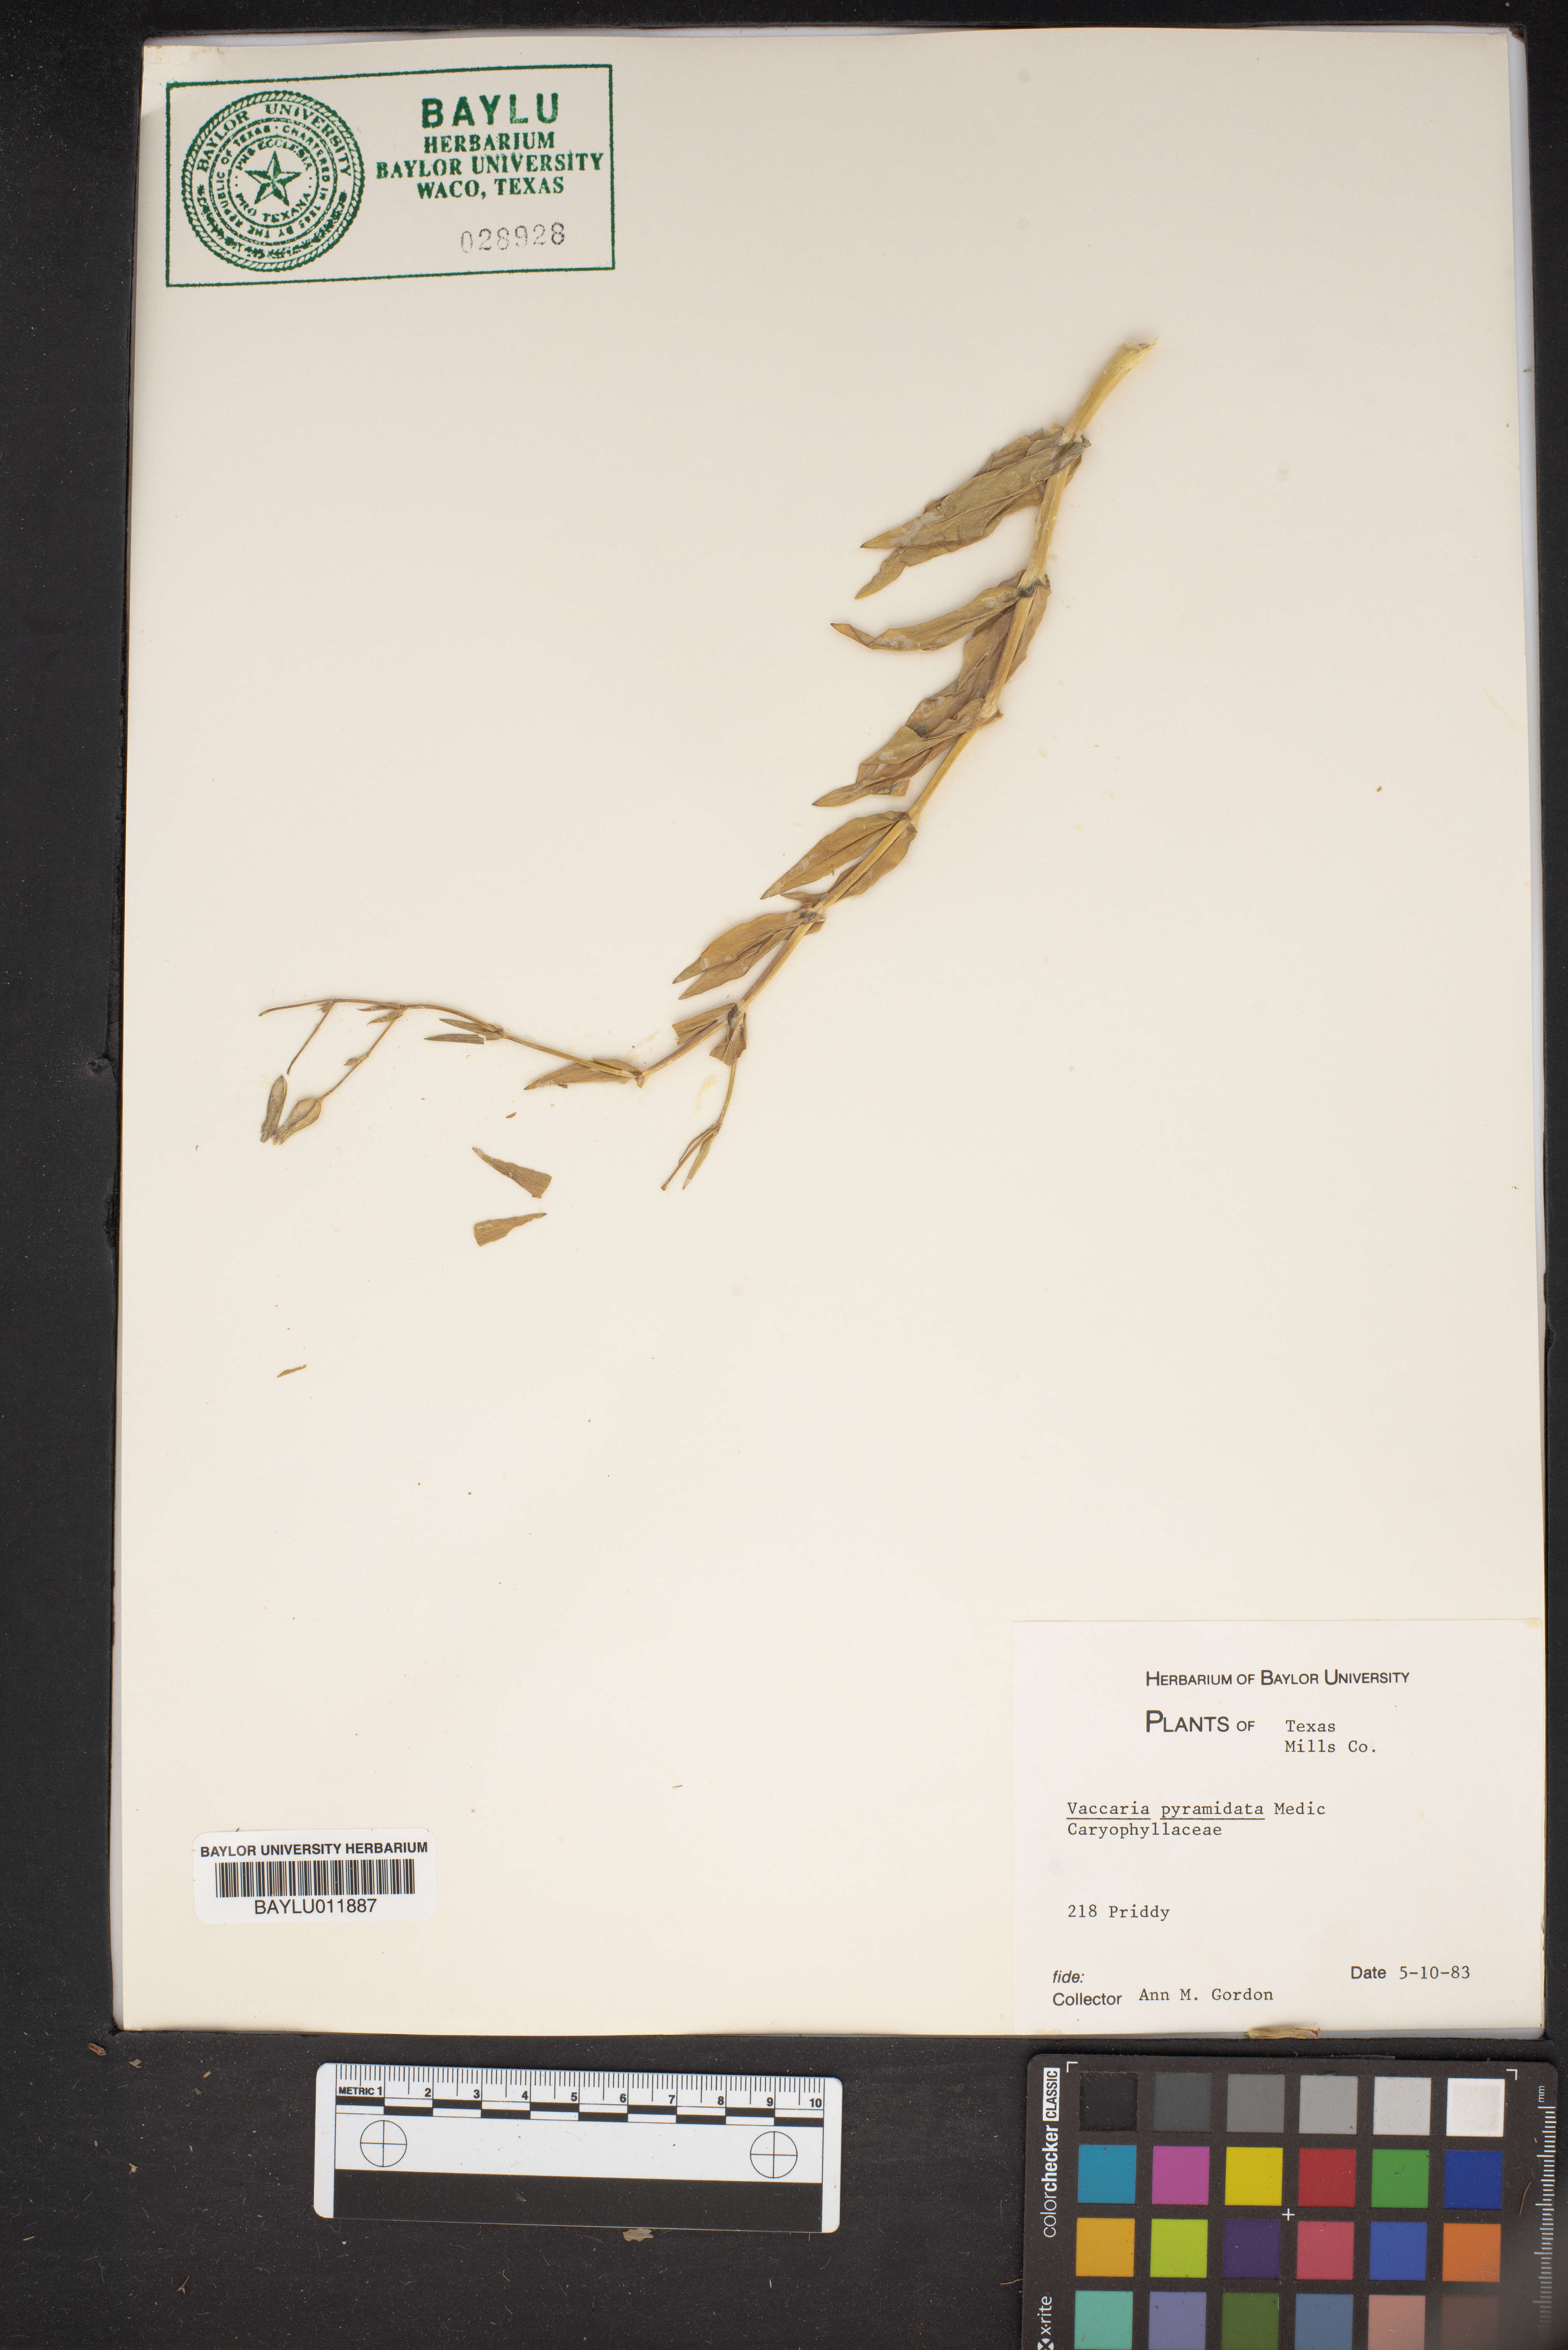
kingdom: Plantae
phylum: Tracheophyta
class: Magnoliopsida
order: Caryophyllales
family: Caryophyllaceae
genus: Gypsophila
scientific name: Gypsophila vaccaria
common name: Cow soapwort
